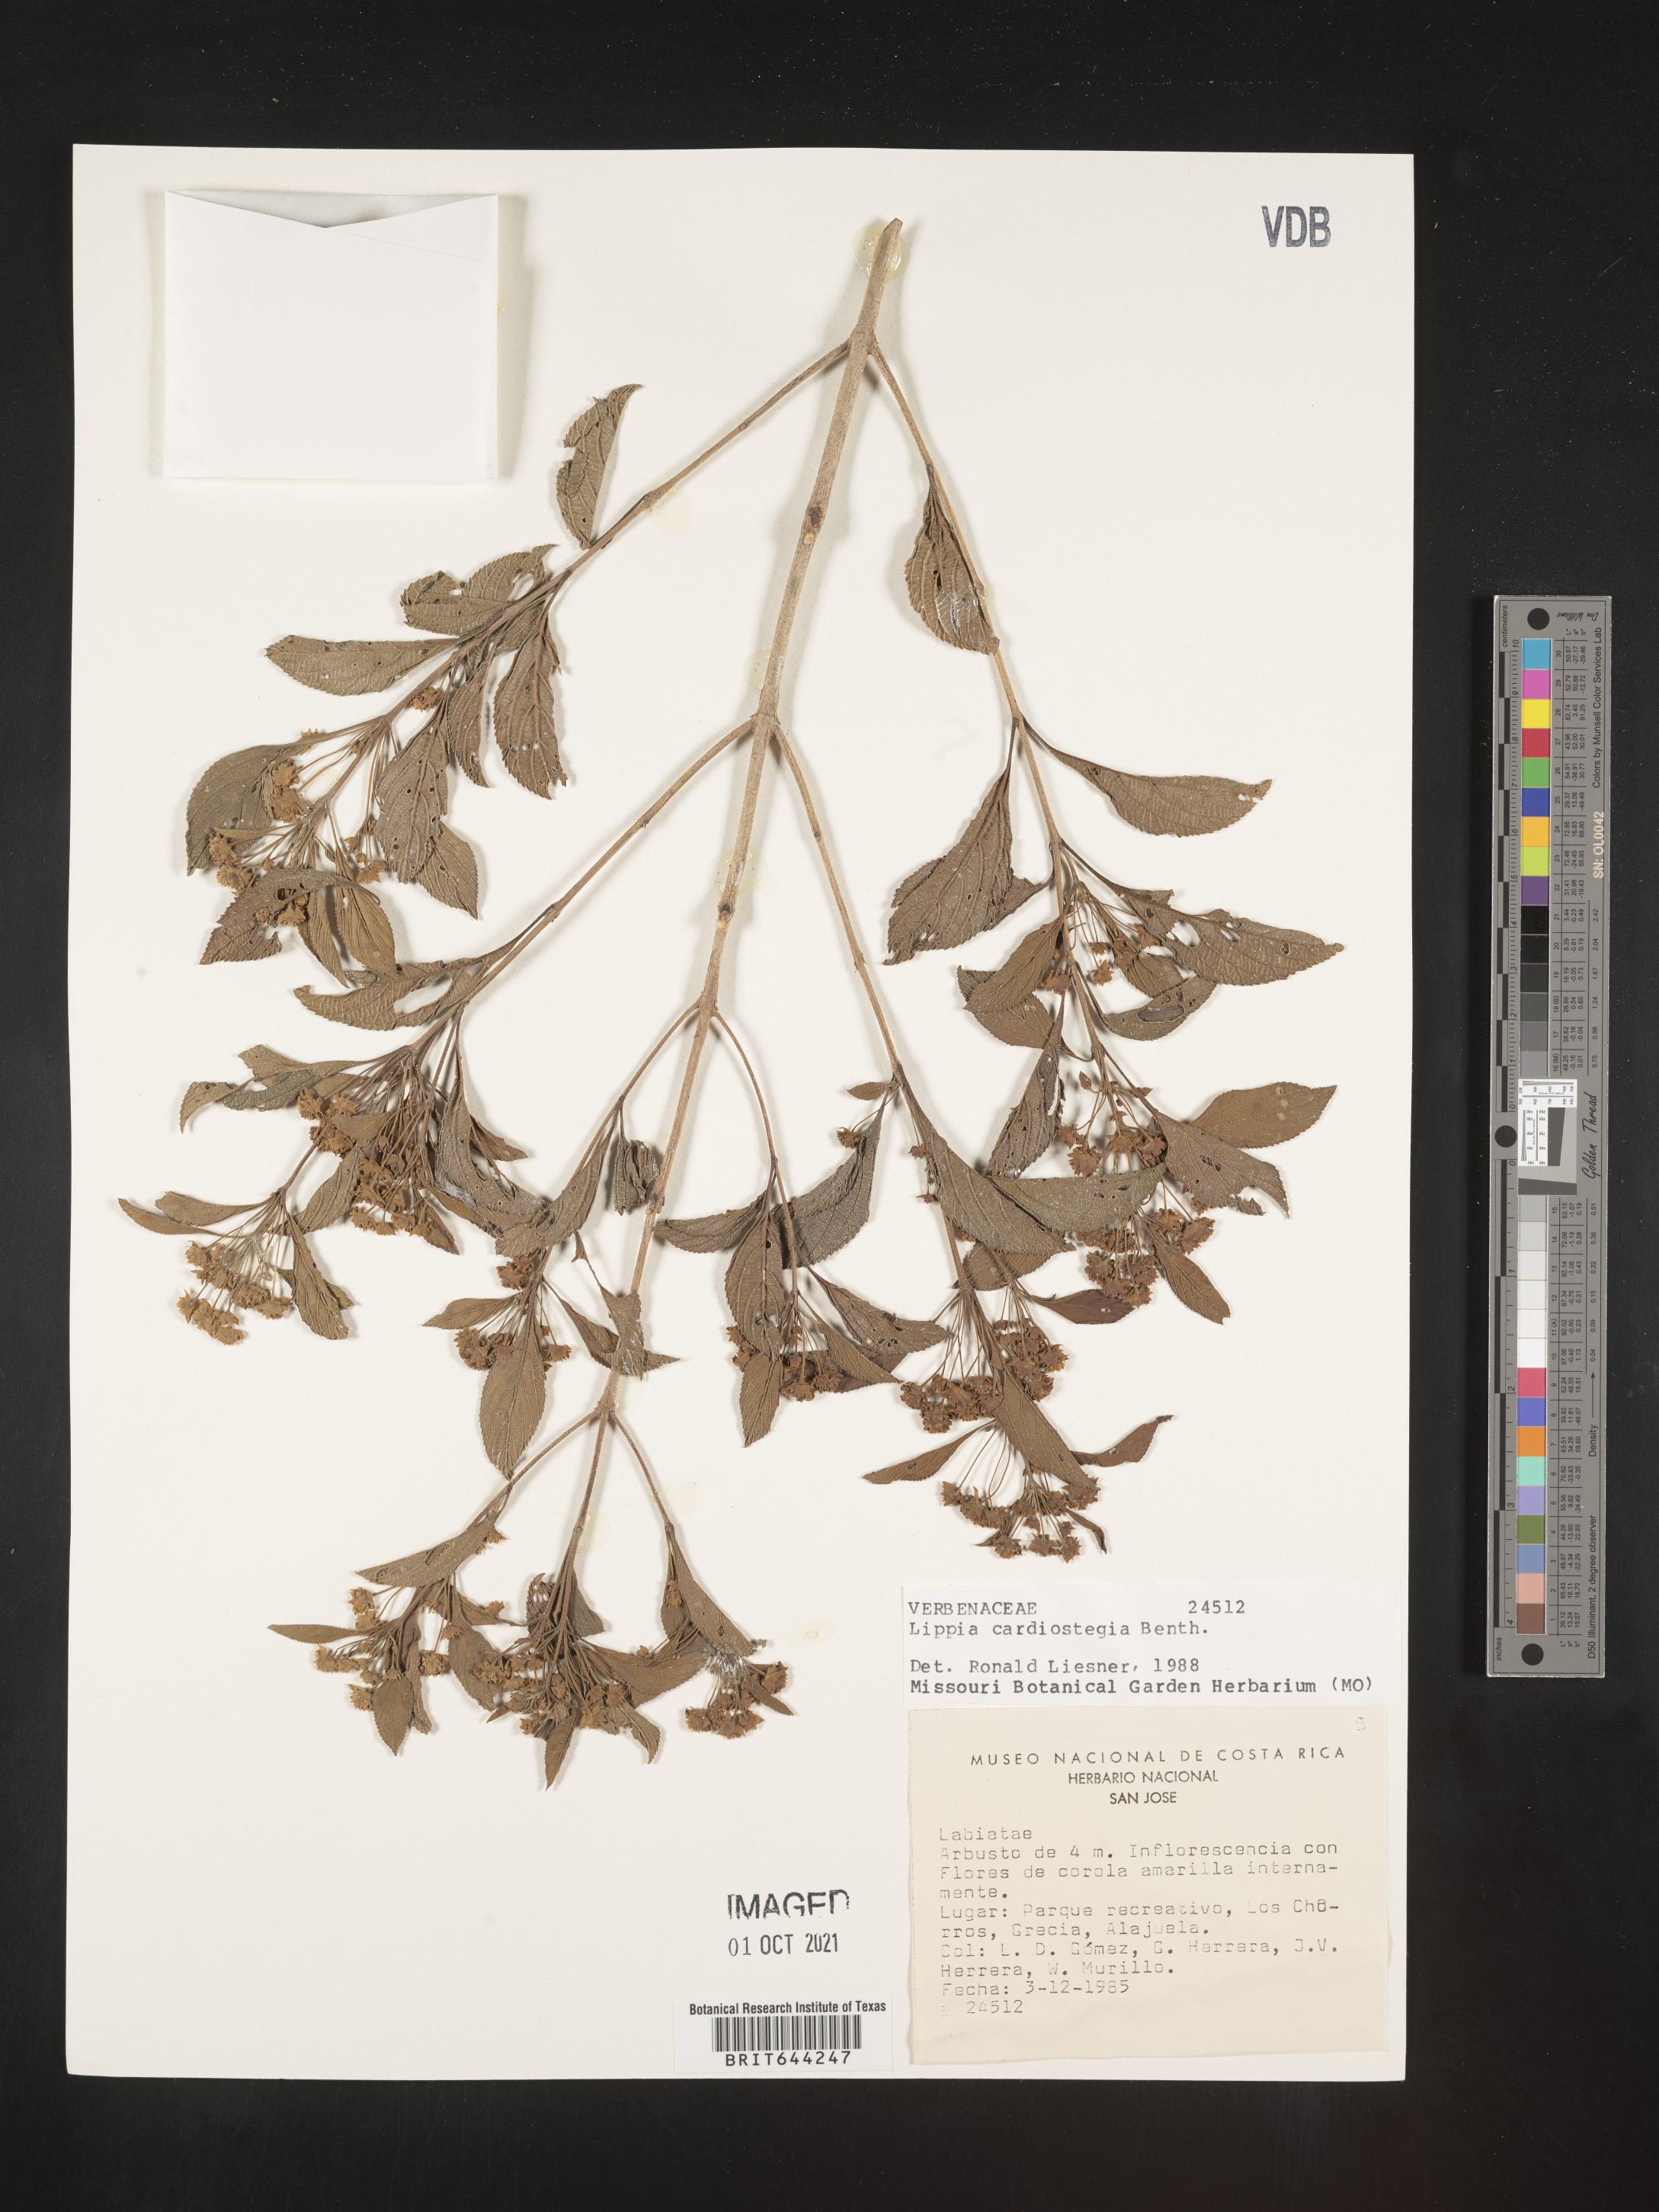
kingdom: Plantae
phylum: Tracheophyta
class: Magnoliopsida
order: Lamiales
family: Verbenaceae
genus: Lippia
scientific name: Lippia
